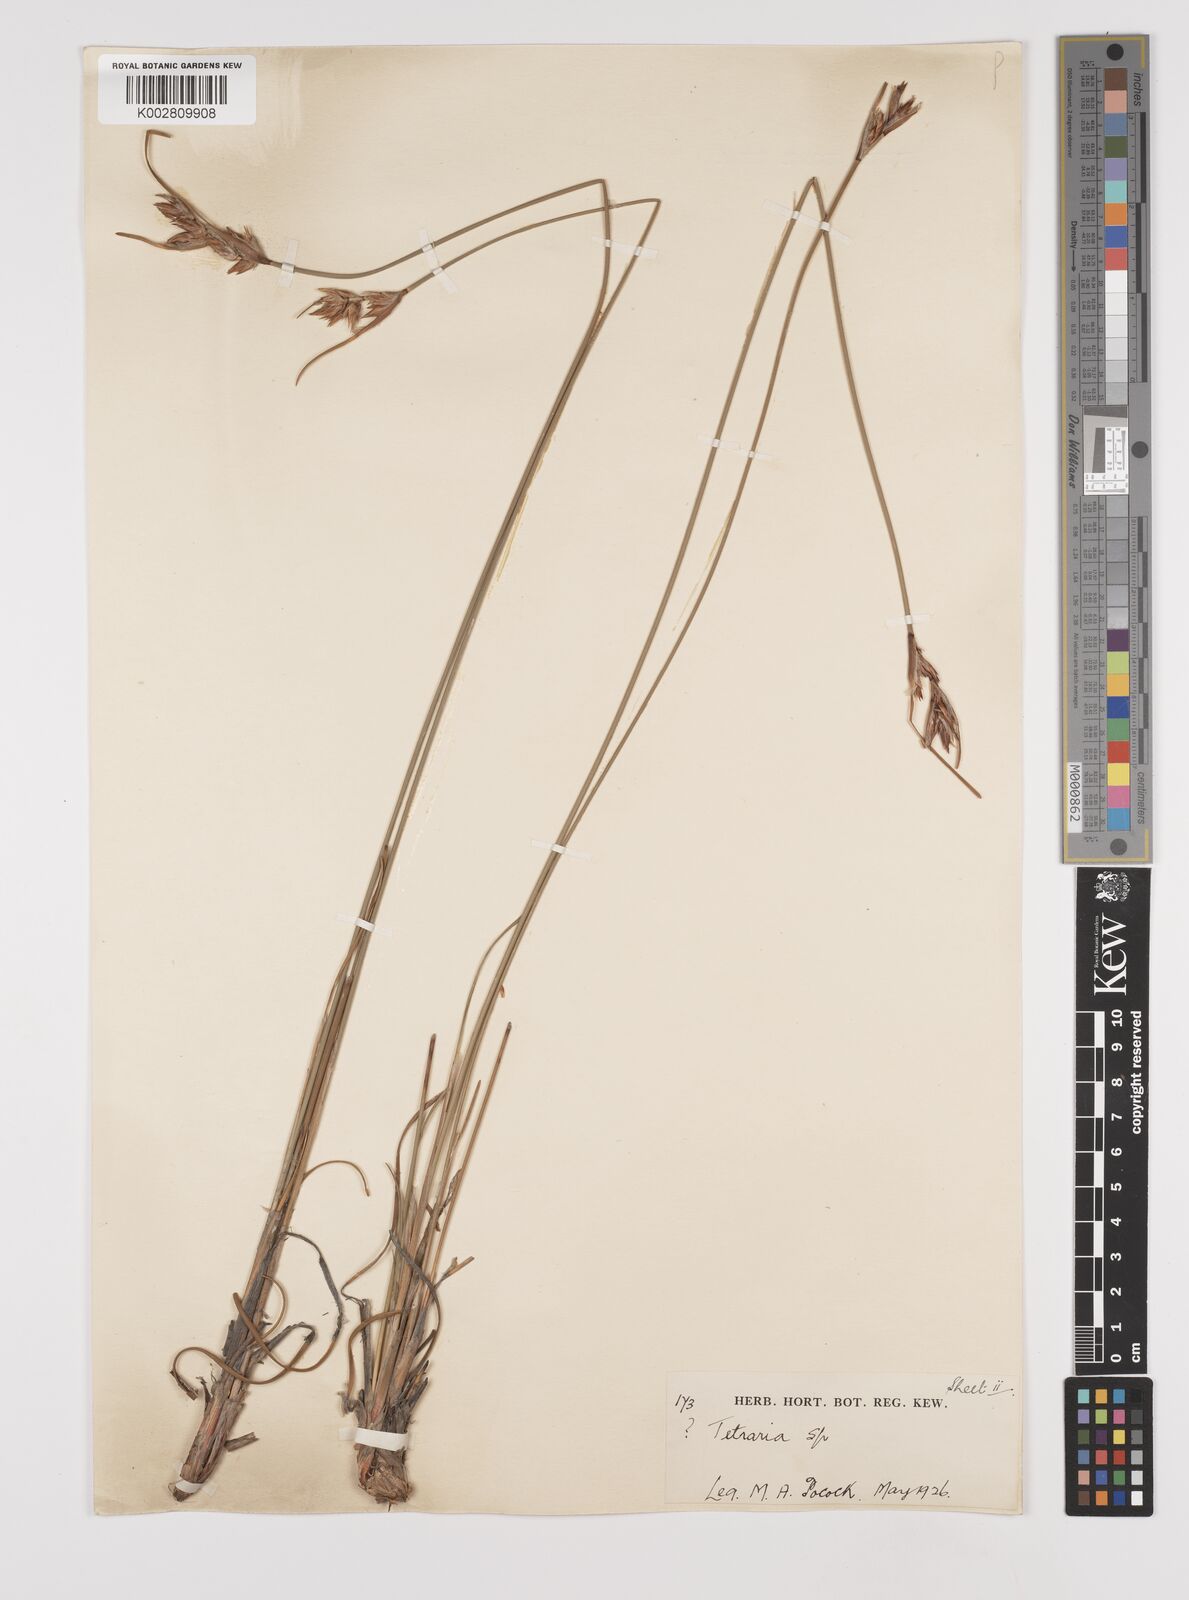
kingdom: Plantae
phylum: Tracheophyta
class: Liliopsida
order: Poales
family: Cyperaceae
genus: Schoenus
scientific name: Schoenus megacarpus
